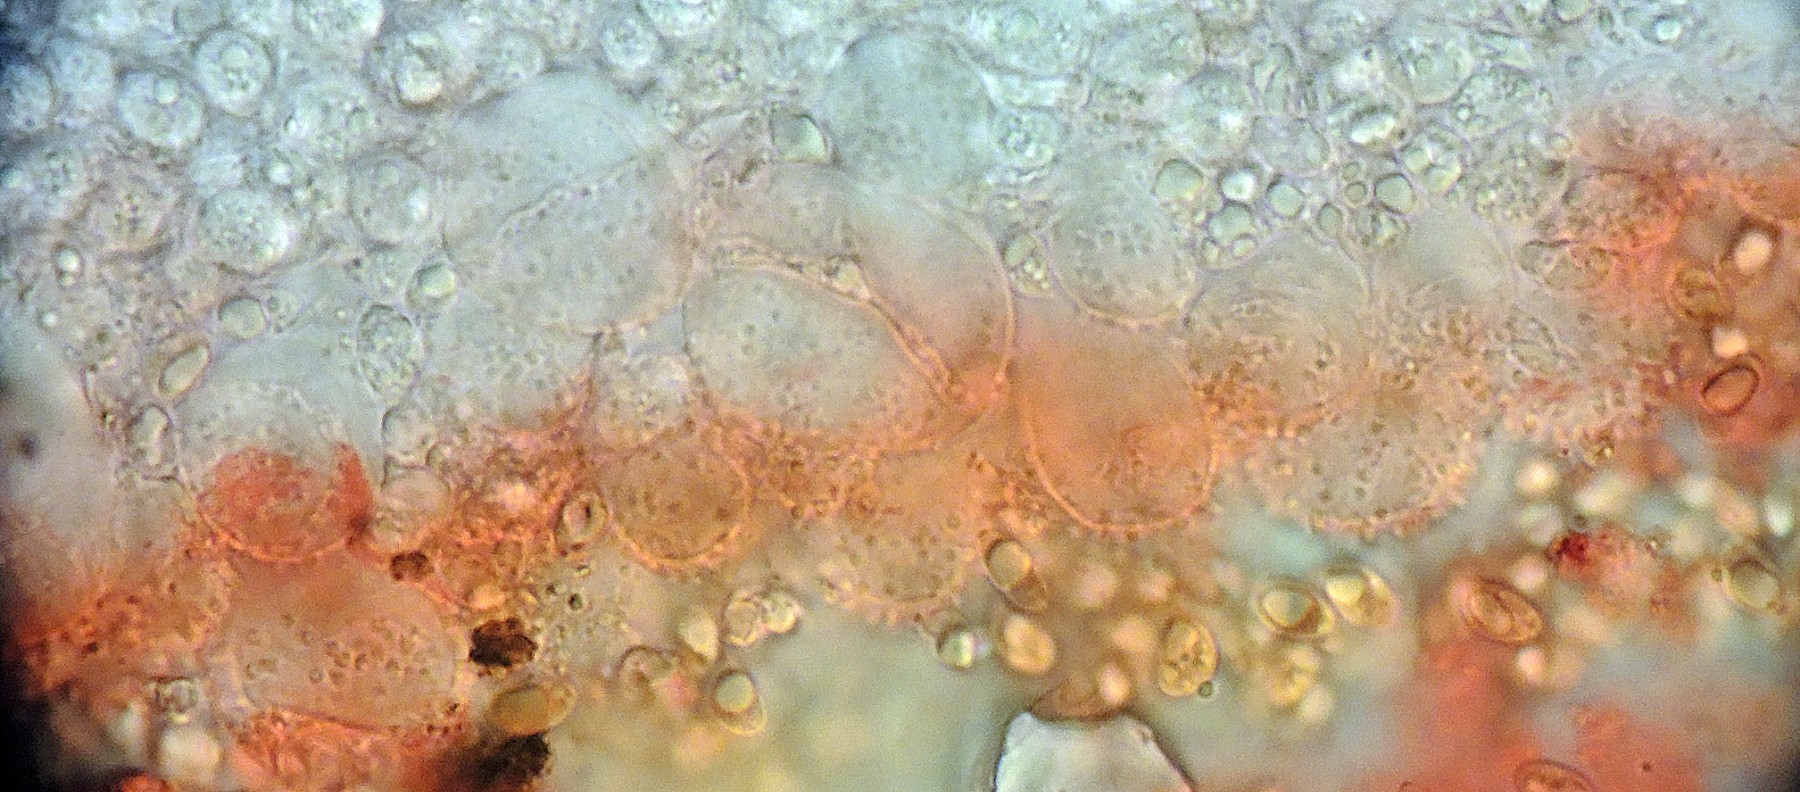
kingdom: Fungi
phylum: Basidiomycota
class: Agaricomycetes
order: Agaricales
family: Mycenaceae
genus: Mycena
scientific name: Mycena metata
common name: rødlig huesvamp
